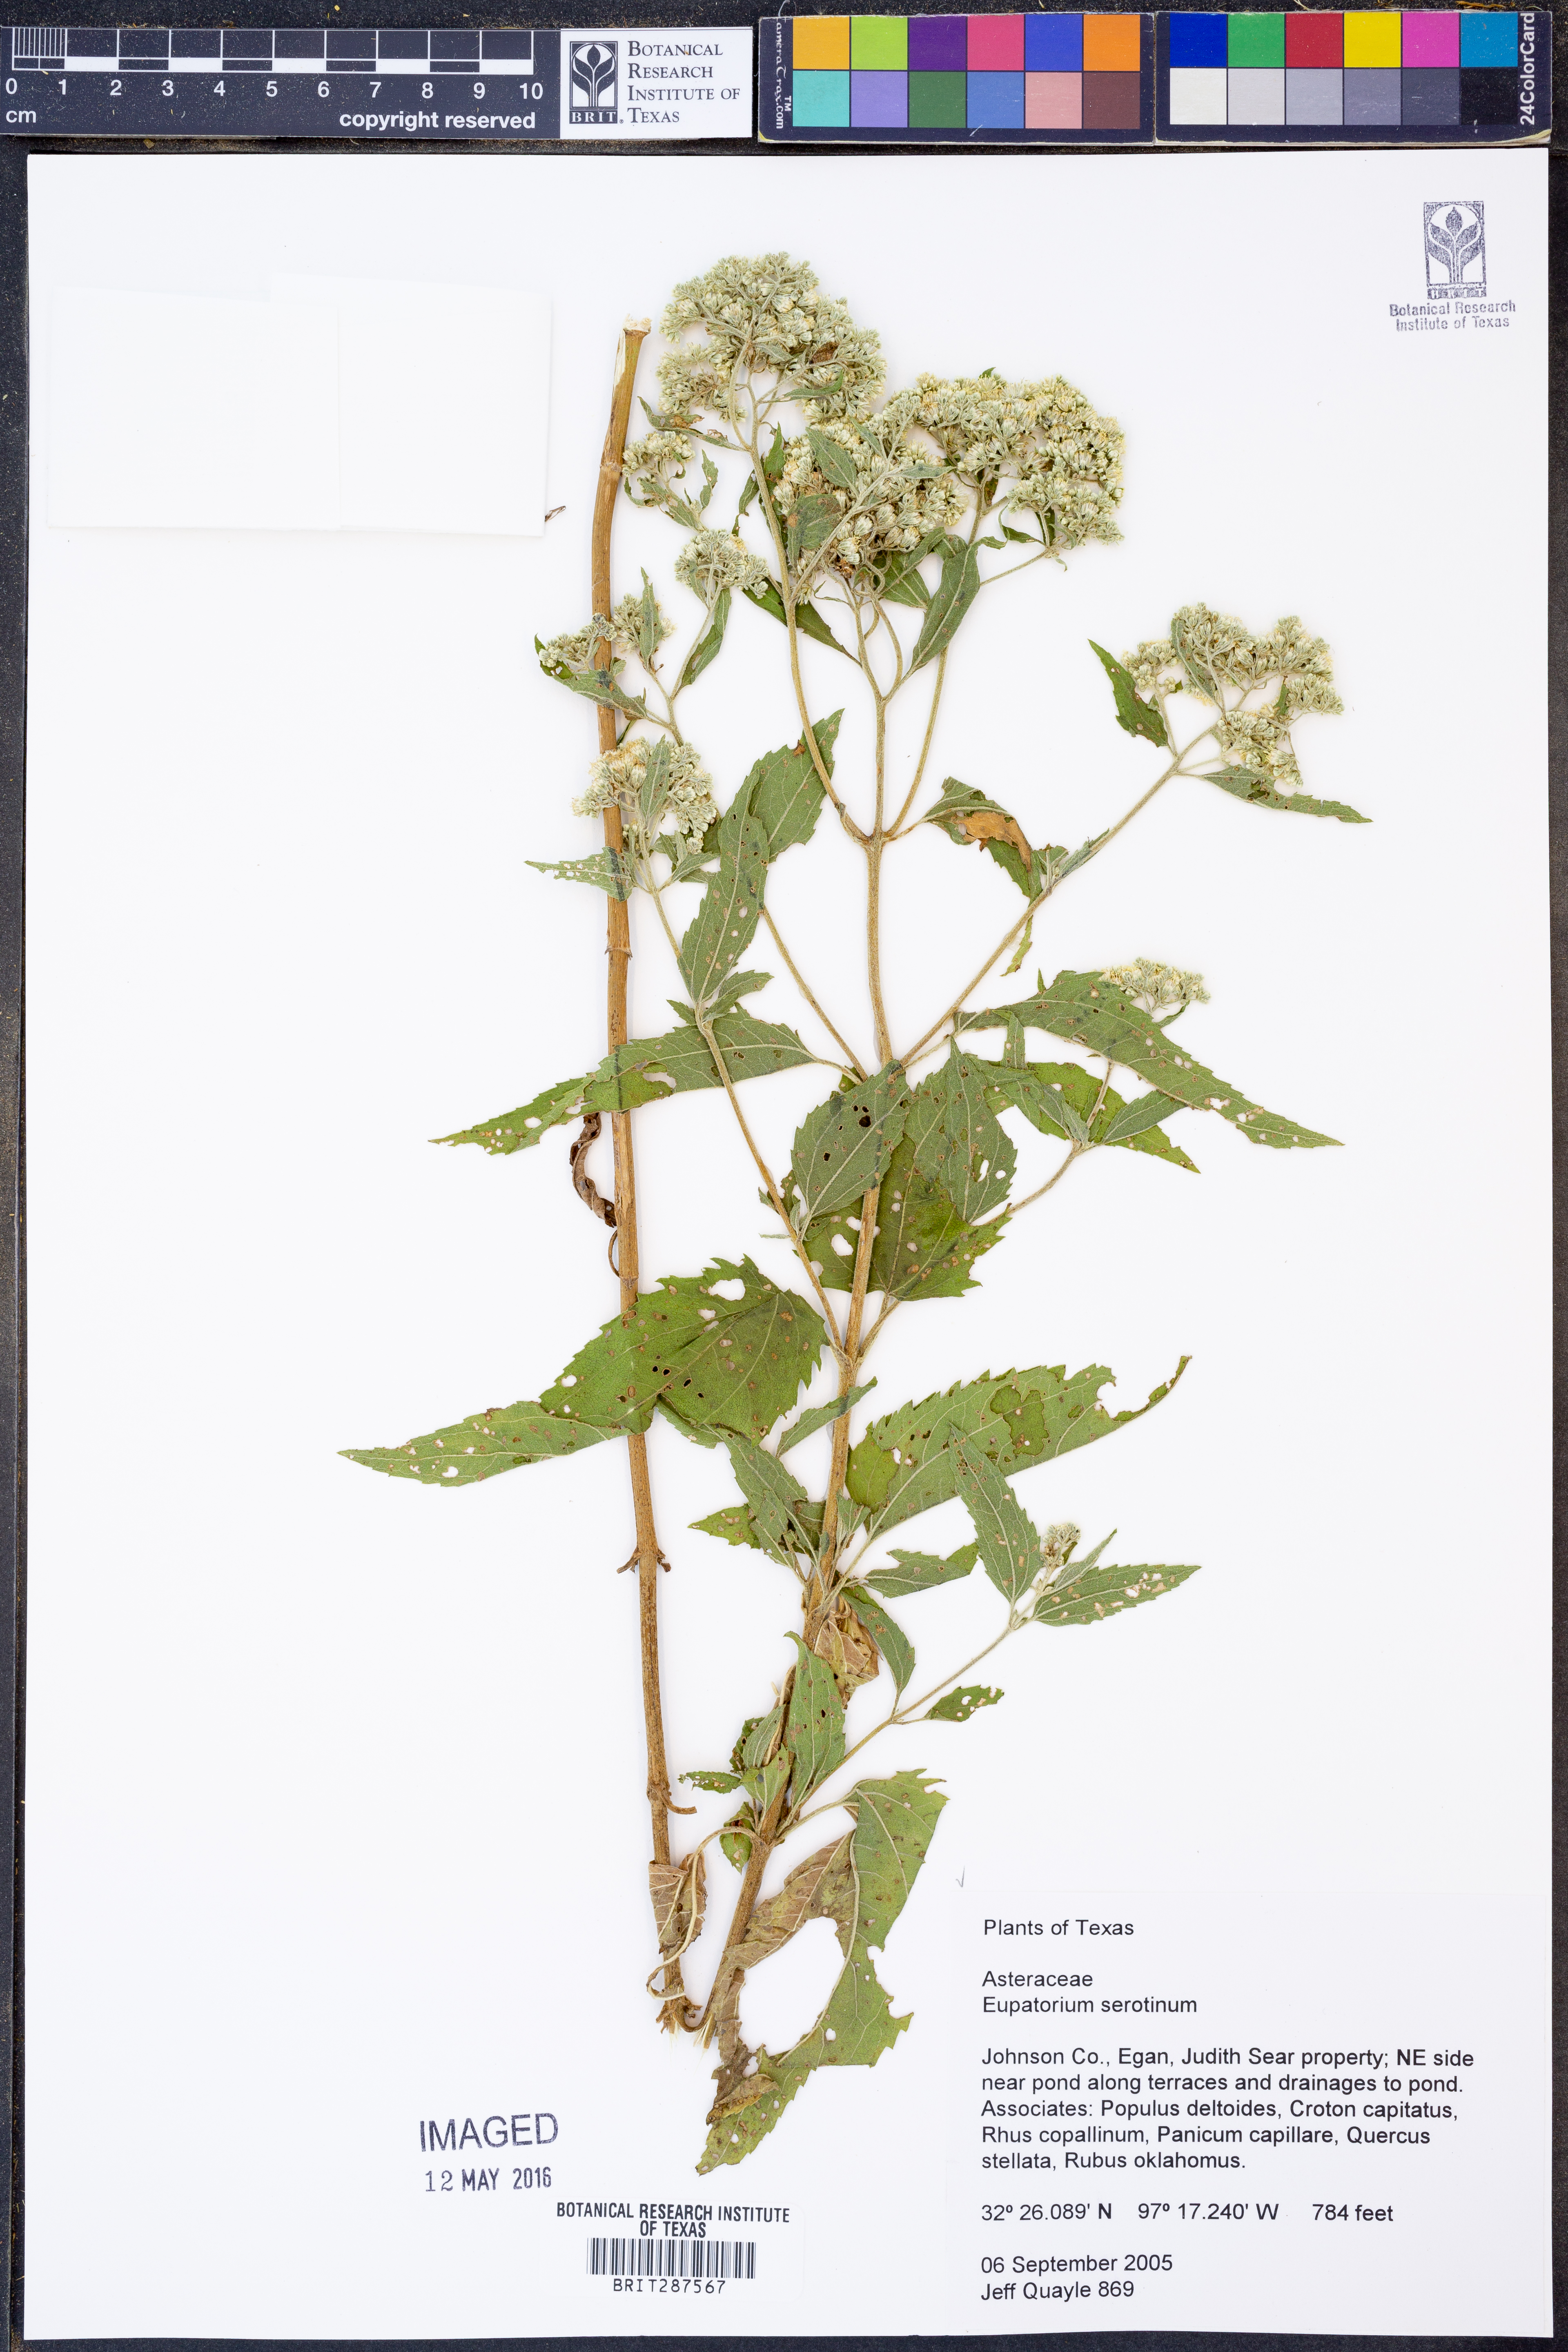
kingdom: Plantae
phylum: Tracheophyta
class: Magnoliopsida
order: Asterales
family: Asteraceae
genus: Eupatorium
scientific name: Eupatorium serotinum
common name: Late boneset
